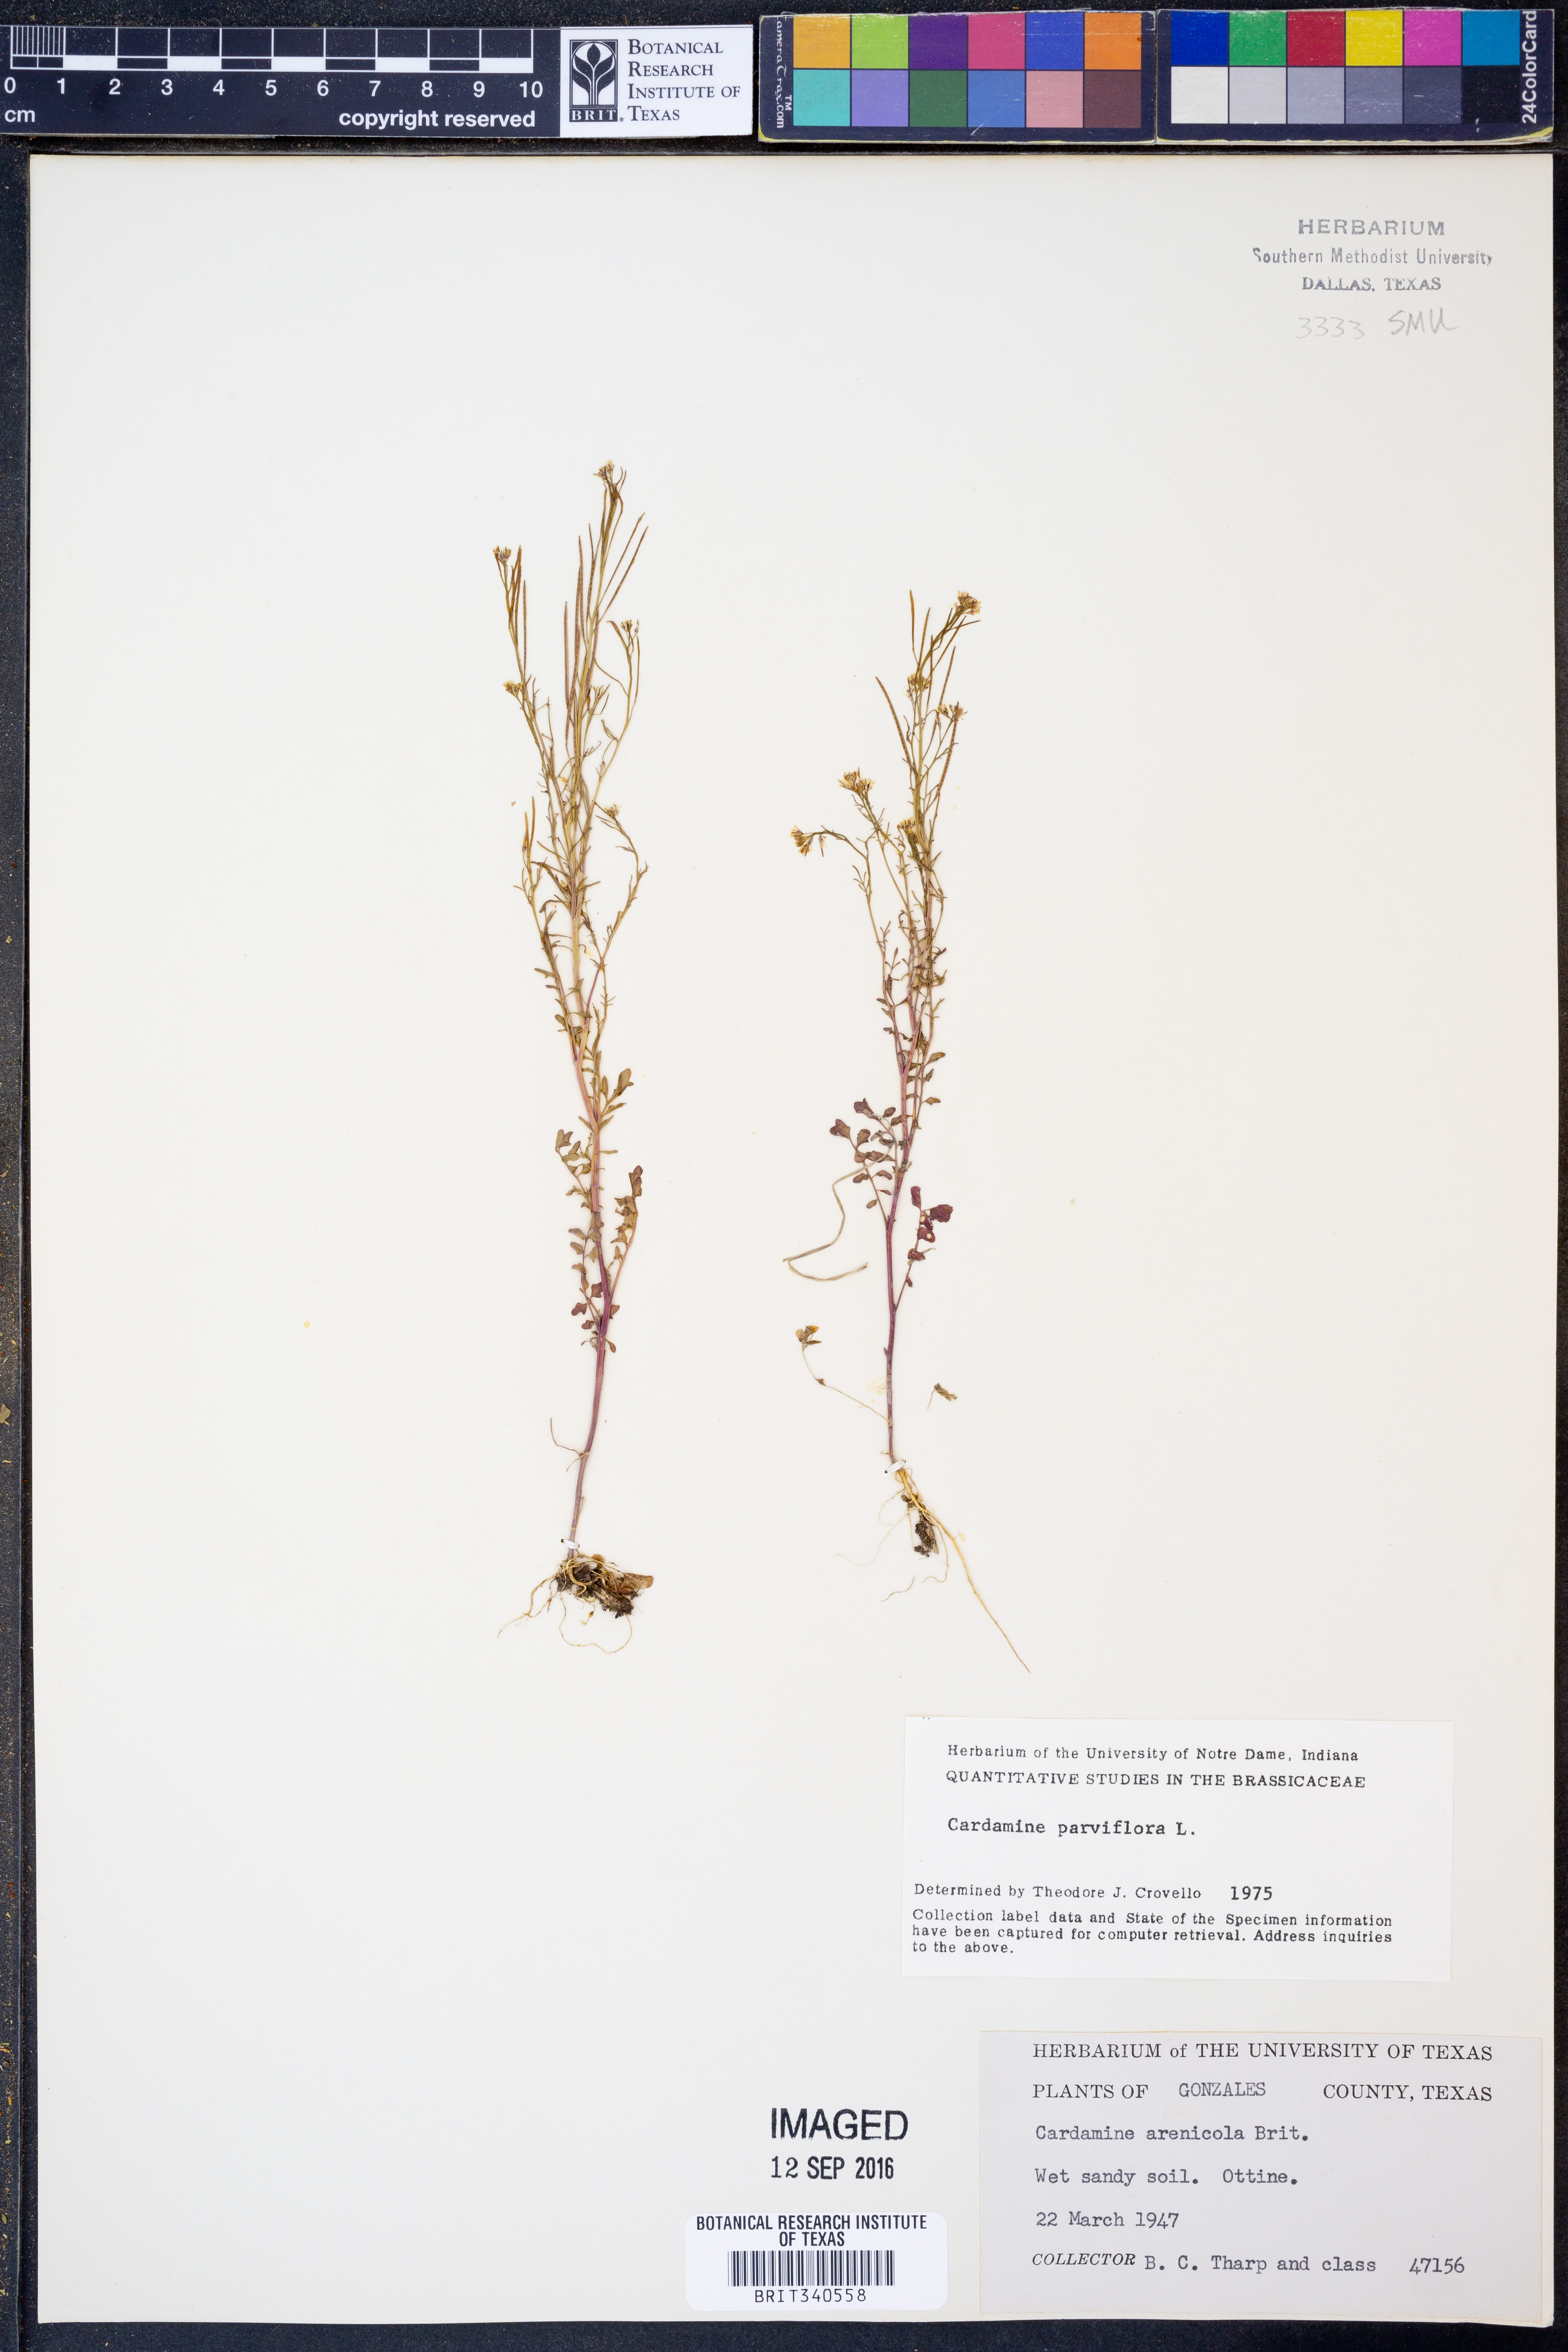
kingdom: Plantae
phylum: Tracheophyta
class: Magnoliopsida
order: Brassicales
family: Brassicaceae
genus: Cardamine
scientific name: Cardamine parviflora
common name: Sand bittercress
